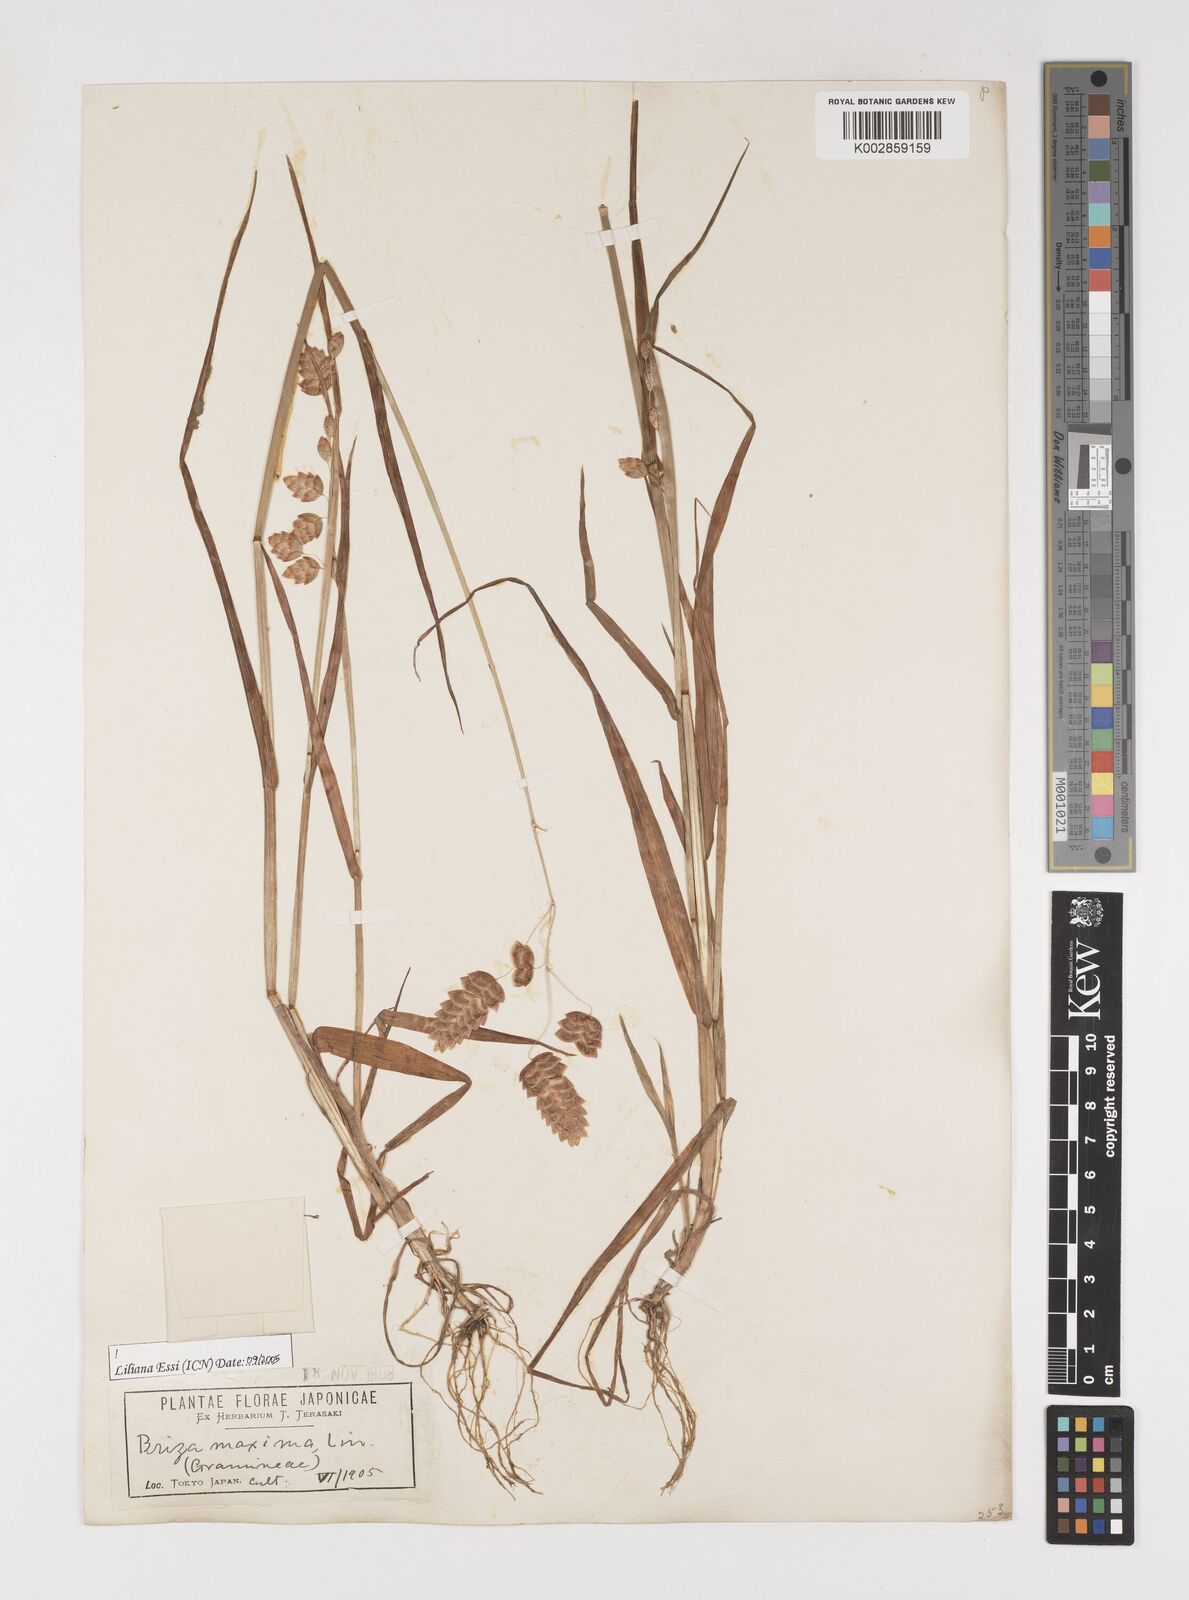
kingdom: Plantae
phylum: Tracheophyta
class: Liliopsida
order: Poales
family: Poaceae
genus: Briza
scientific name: Briza maxima
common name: Big quakinggrass
